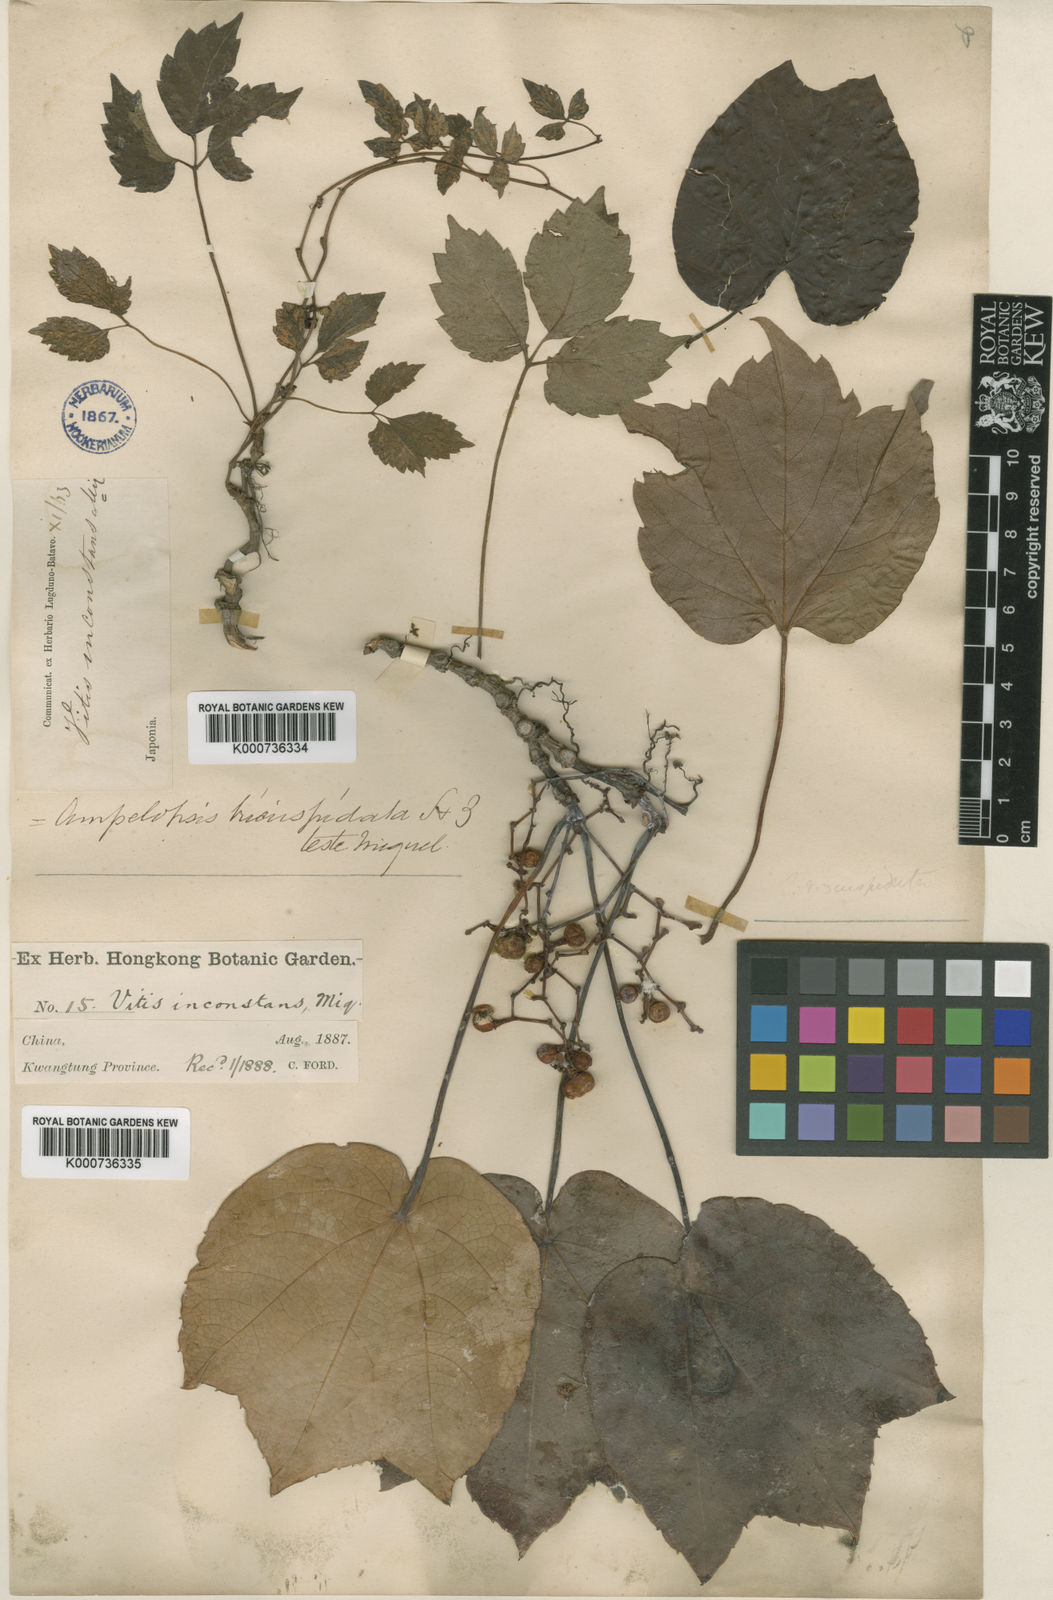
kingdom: Plantae
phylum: Tracheophyta
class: Magnoliopsida
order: Vitales
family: Vitaceae
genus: Parthenocissus
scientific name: Parthenocissus tricuspidata
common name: Boston ivy
